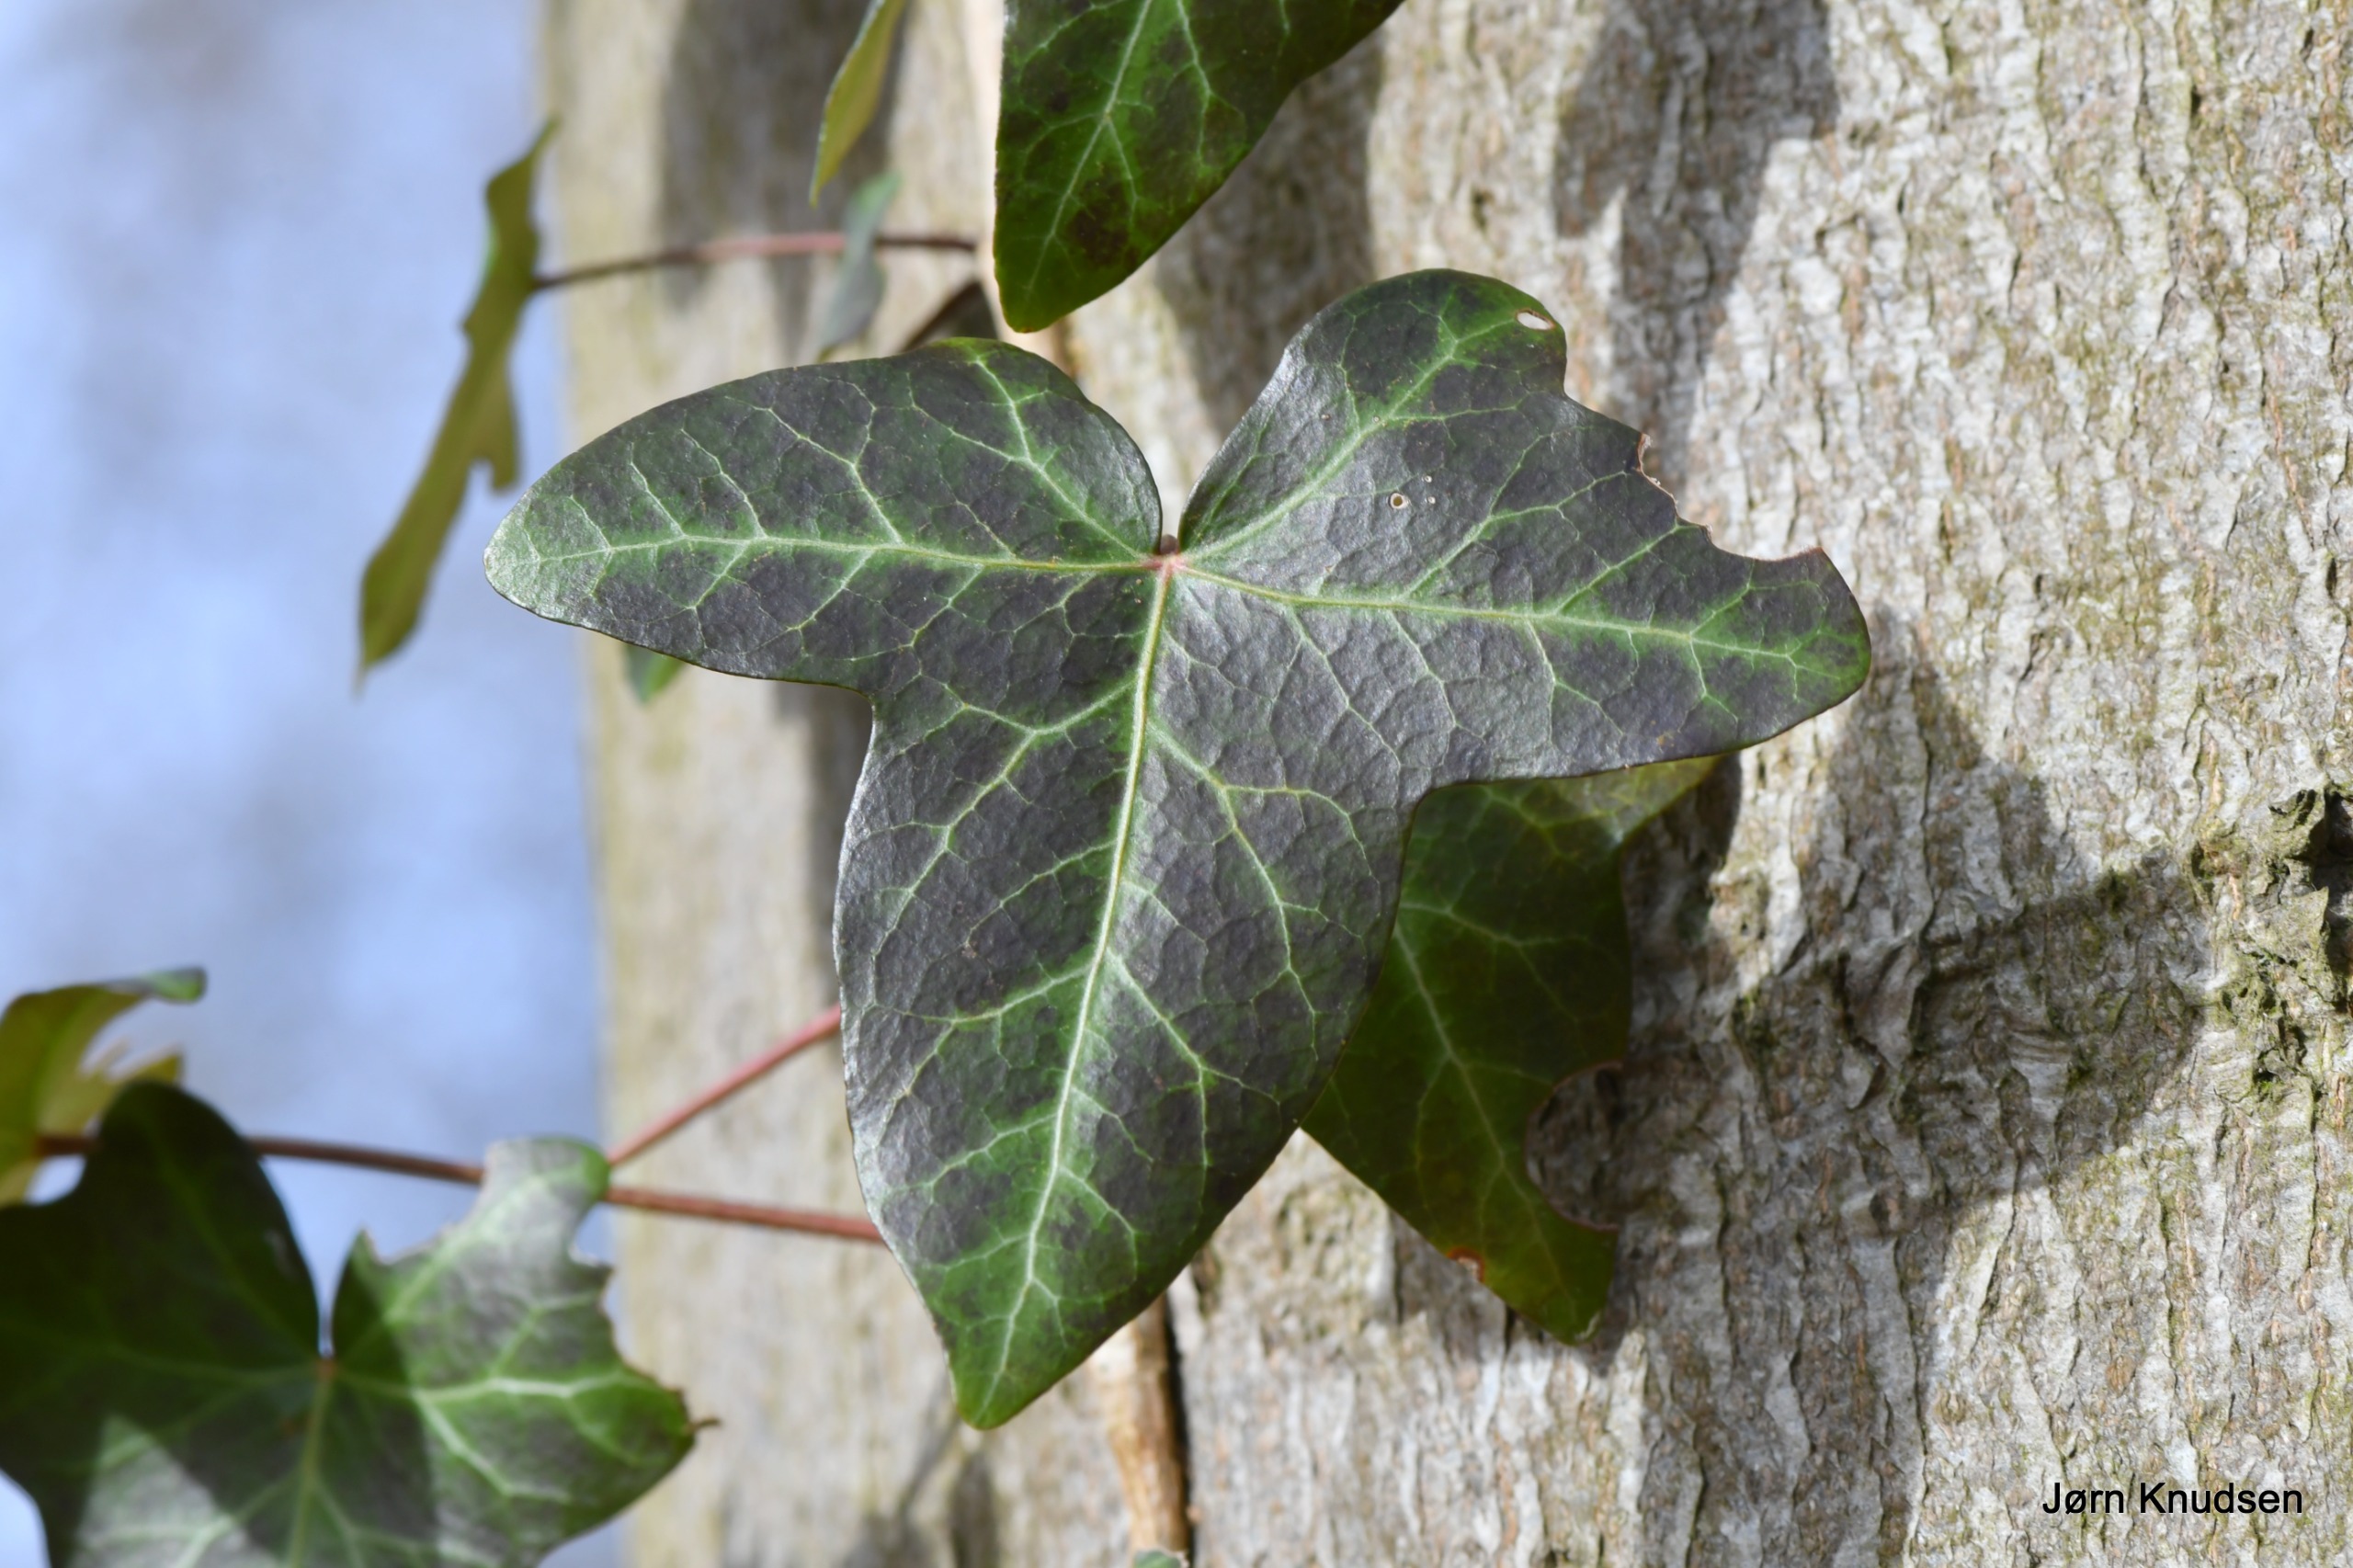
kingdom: Plantae
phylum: Tracheophyta
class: Magnoliopsida
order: Apiales
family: Araliaceae
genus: Hedera
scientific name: Hedera helix
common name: Vedbend
